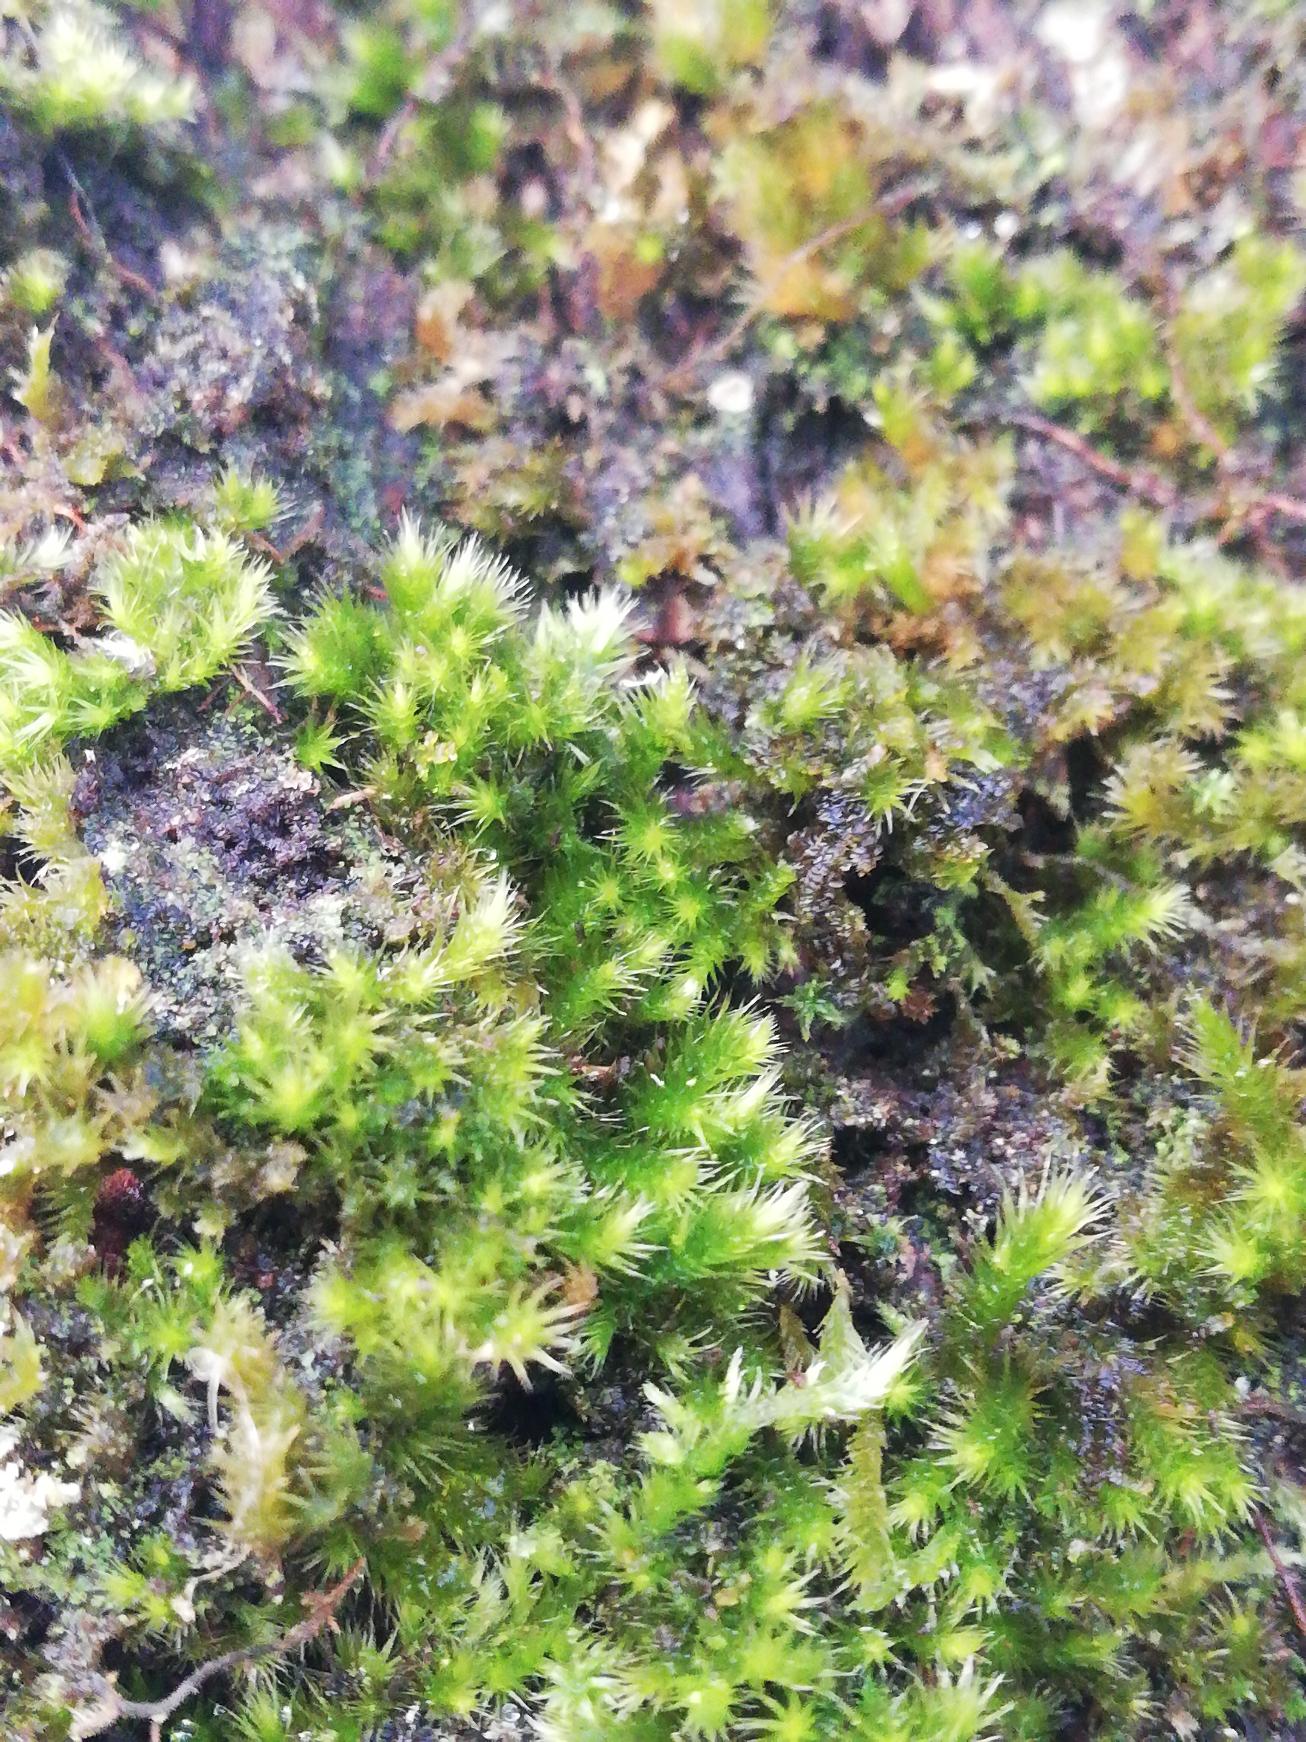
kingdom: Plantae
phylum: Bryophyta
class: Bryopsida
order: Hypnales
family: Brachytheciaceae
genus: Homalothecium
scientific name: Homalothecium sericeum
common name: Krybende silkemos
